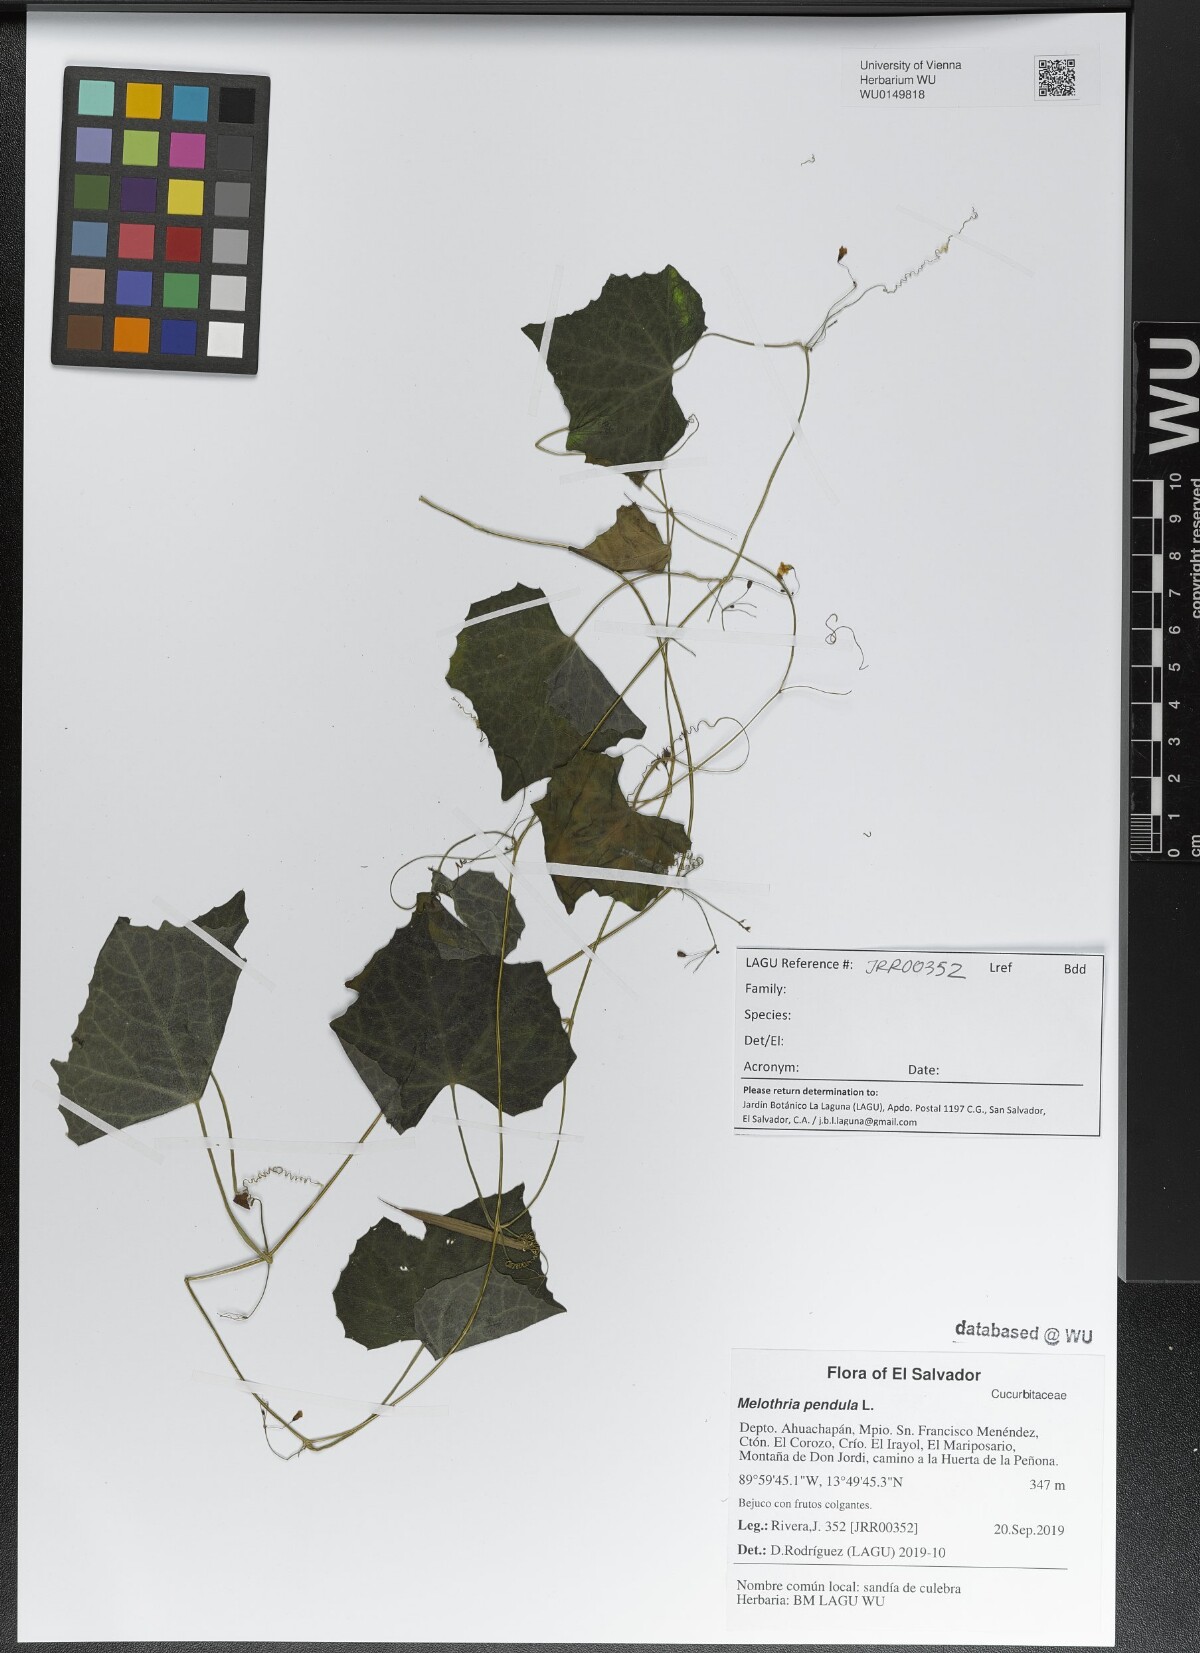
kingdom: Plantae
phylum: Tracheophyta
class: Magnoliopsida
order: Cucurbitales
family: Cucurbitaceae
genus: Melothria
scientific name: Melothria pendula
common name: Creeping-cucumber
